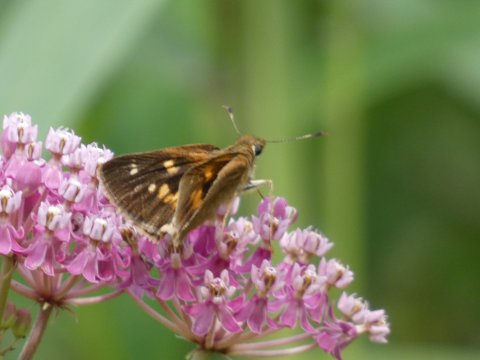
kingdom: Animalia
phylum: Arthropoda
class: Insecta
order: Lepidoptera
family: Hesperiidae
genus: Poanes
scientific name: Poanes viator
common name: Broad-winged Skipper
